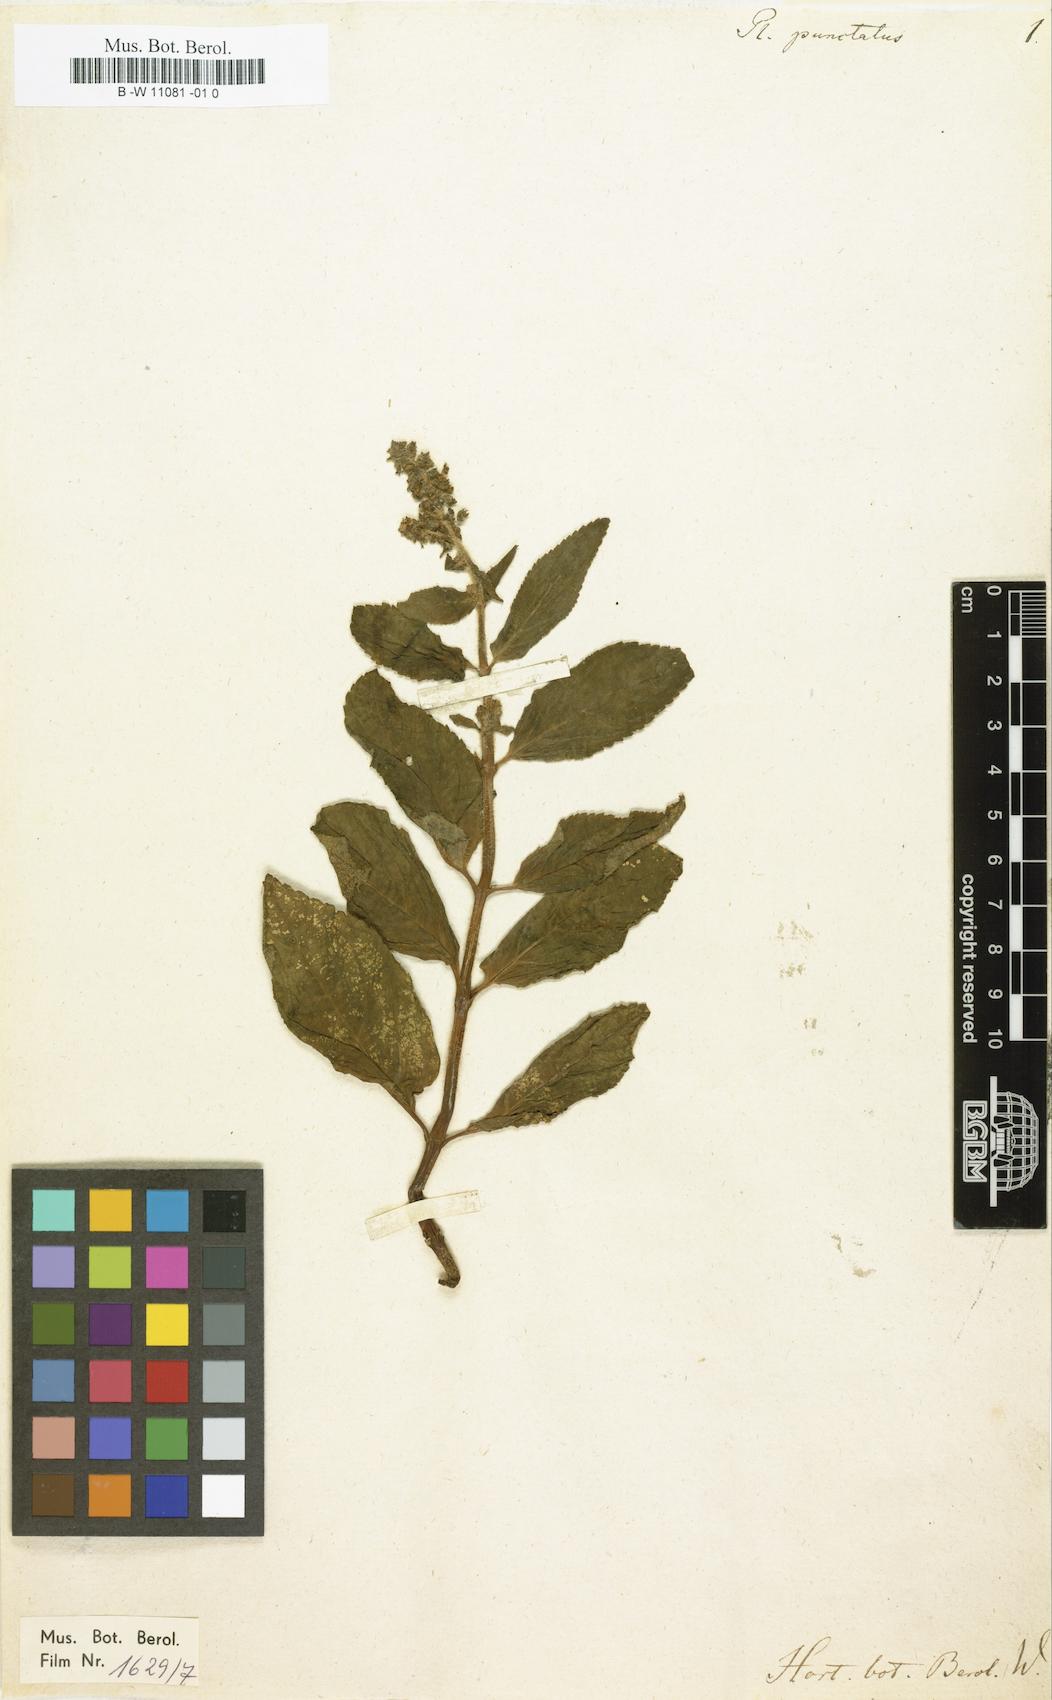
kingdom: Plantae
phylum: Tracheophyta
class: Magnoliopsida
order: Lamiales
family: Lamiaceae
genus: Coleus
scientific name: Coleus maculosus
